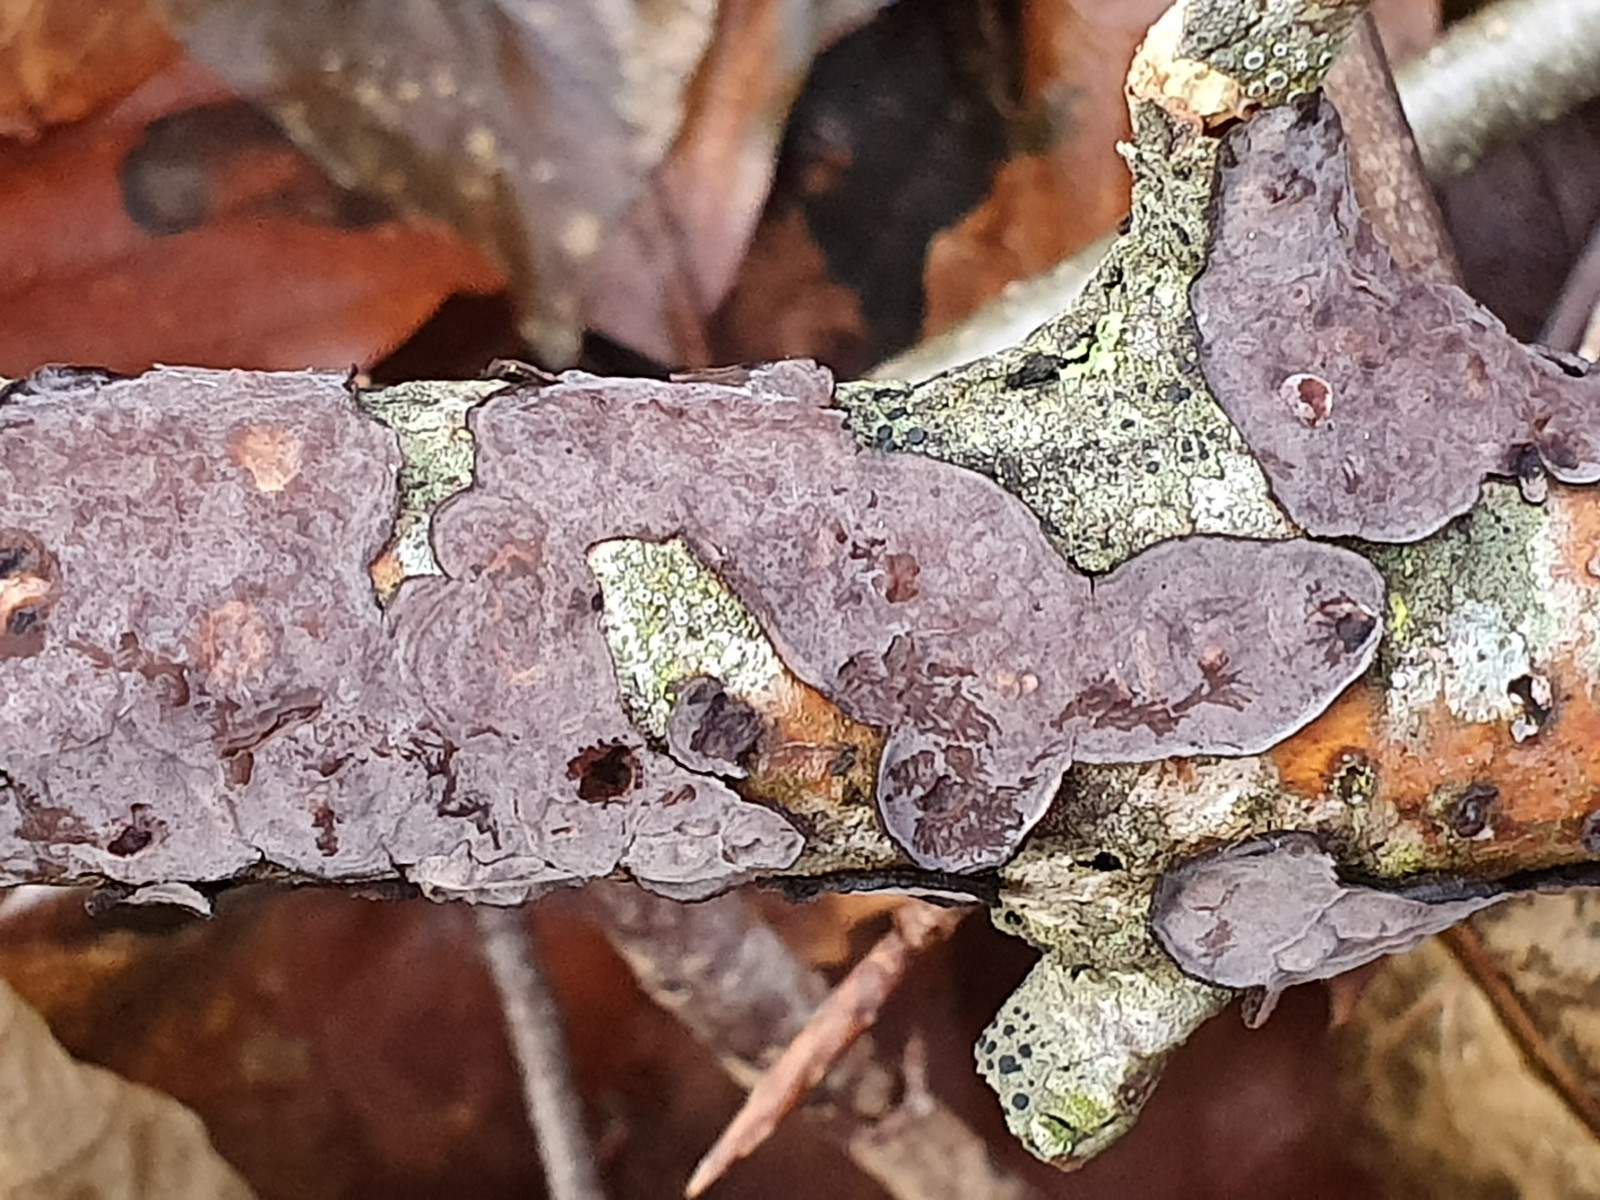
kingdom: Fungi
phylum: Basidiomycota
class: Agaricomycetes
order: Russulales
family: Peniophoraceae
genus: Peniophora
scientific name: Peniophora quercina
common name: ege-voksskind
